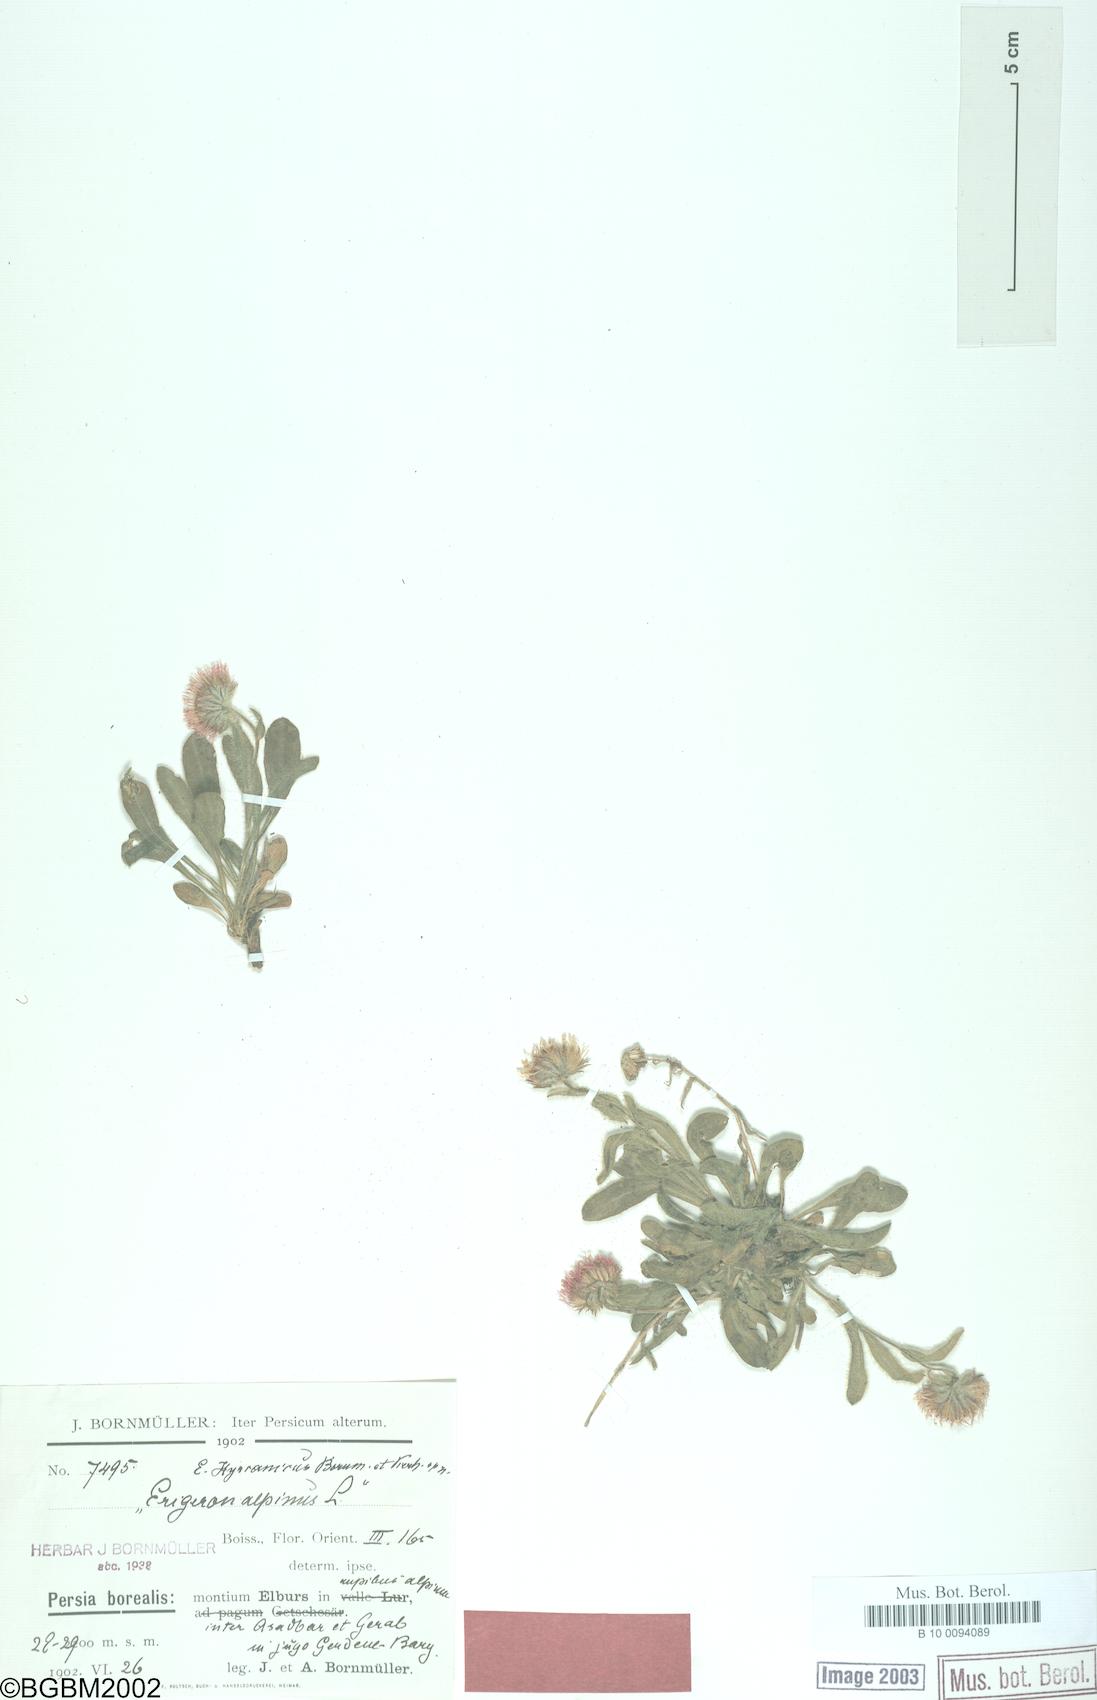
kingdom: Plantae
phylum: Tracheophyta
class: Magnoliopsida
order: Asterales
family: Asteraceae
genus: Erigeron
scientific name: Erigeron hyrcanicus
